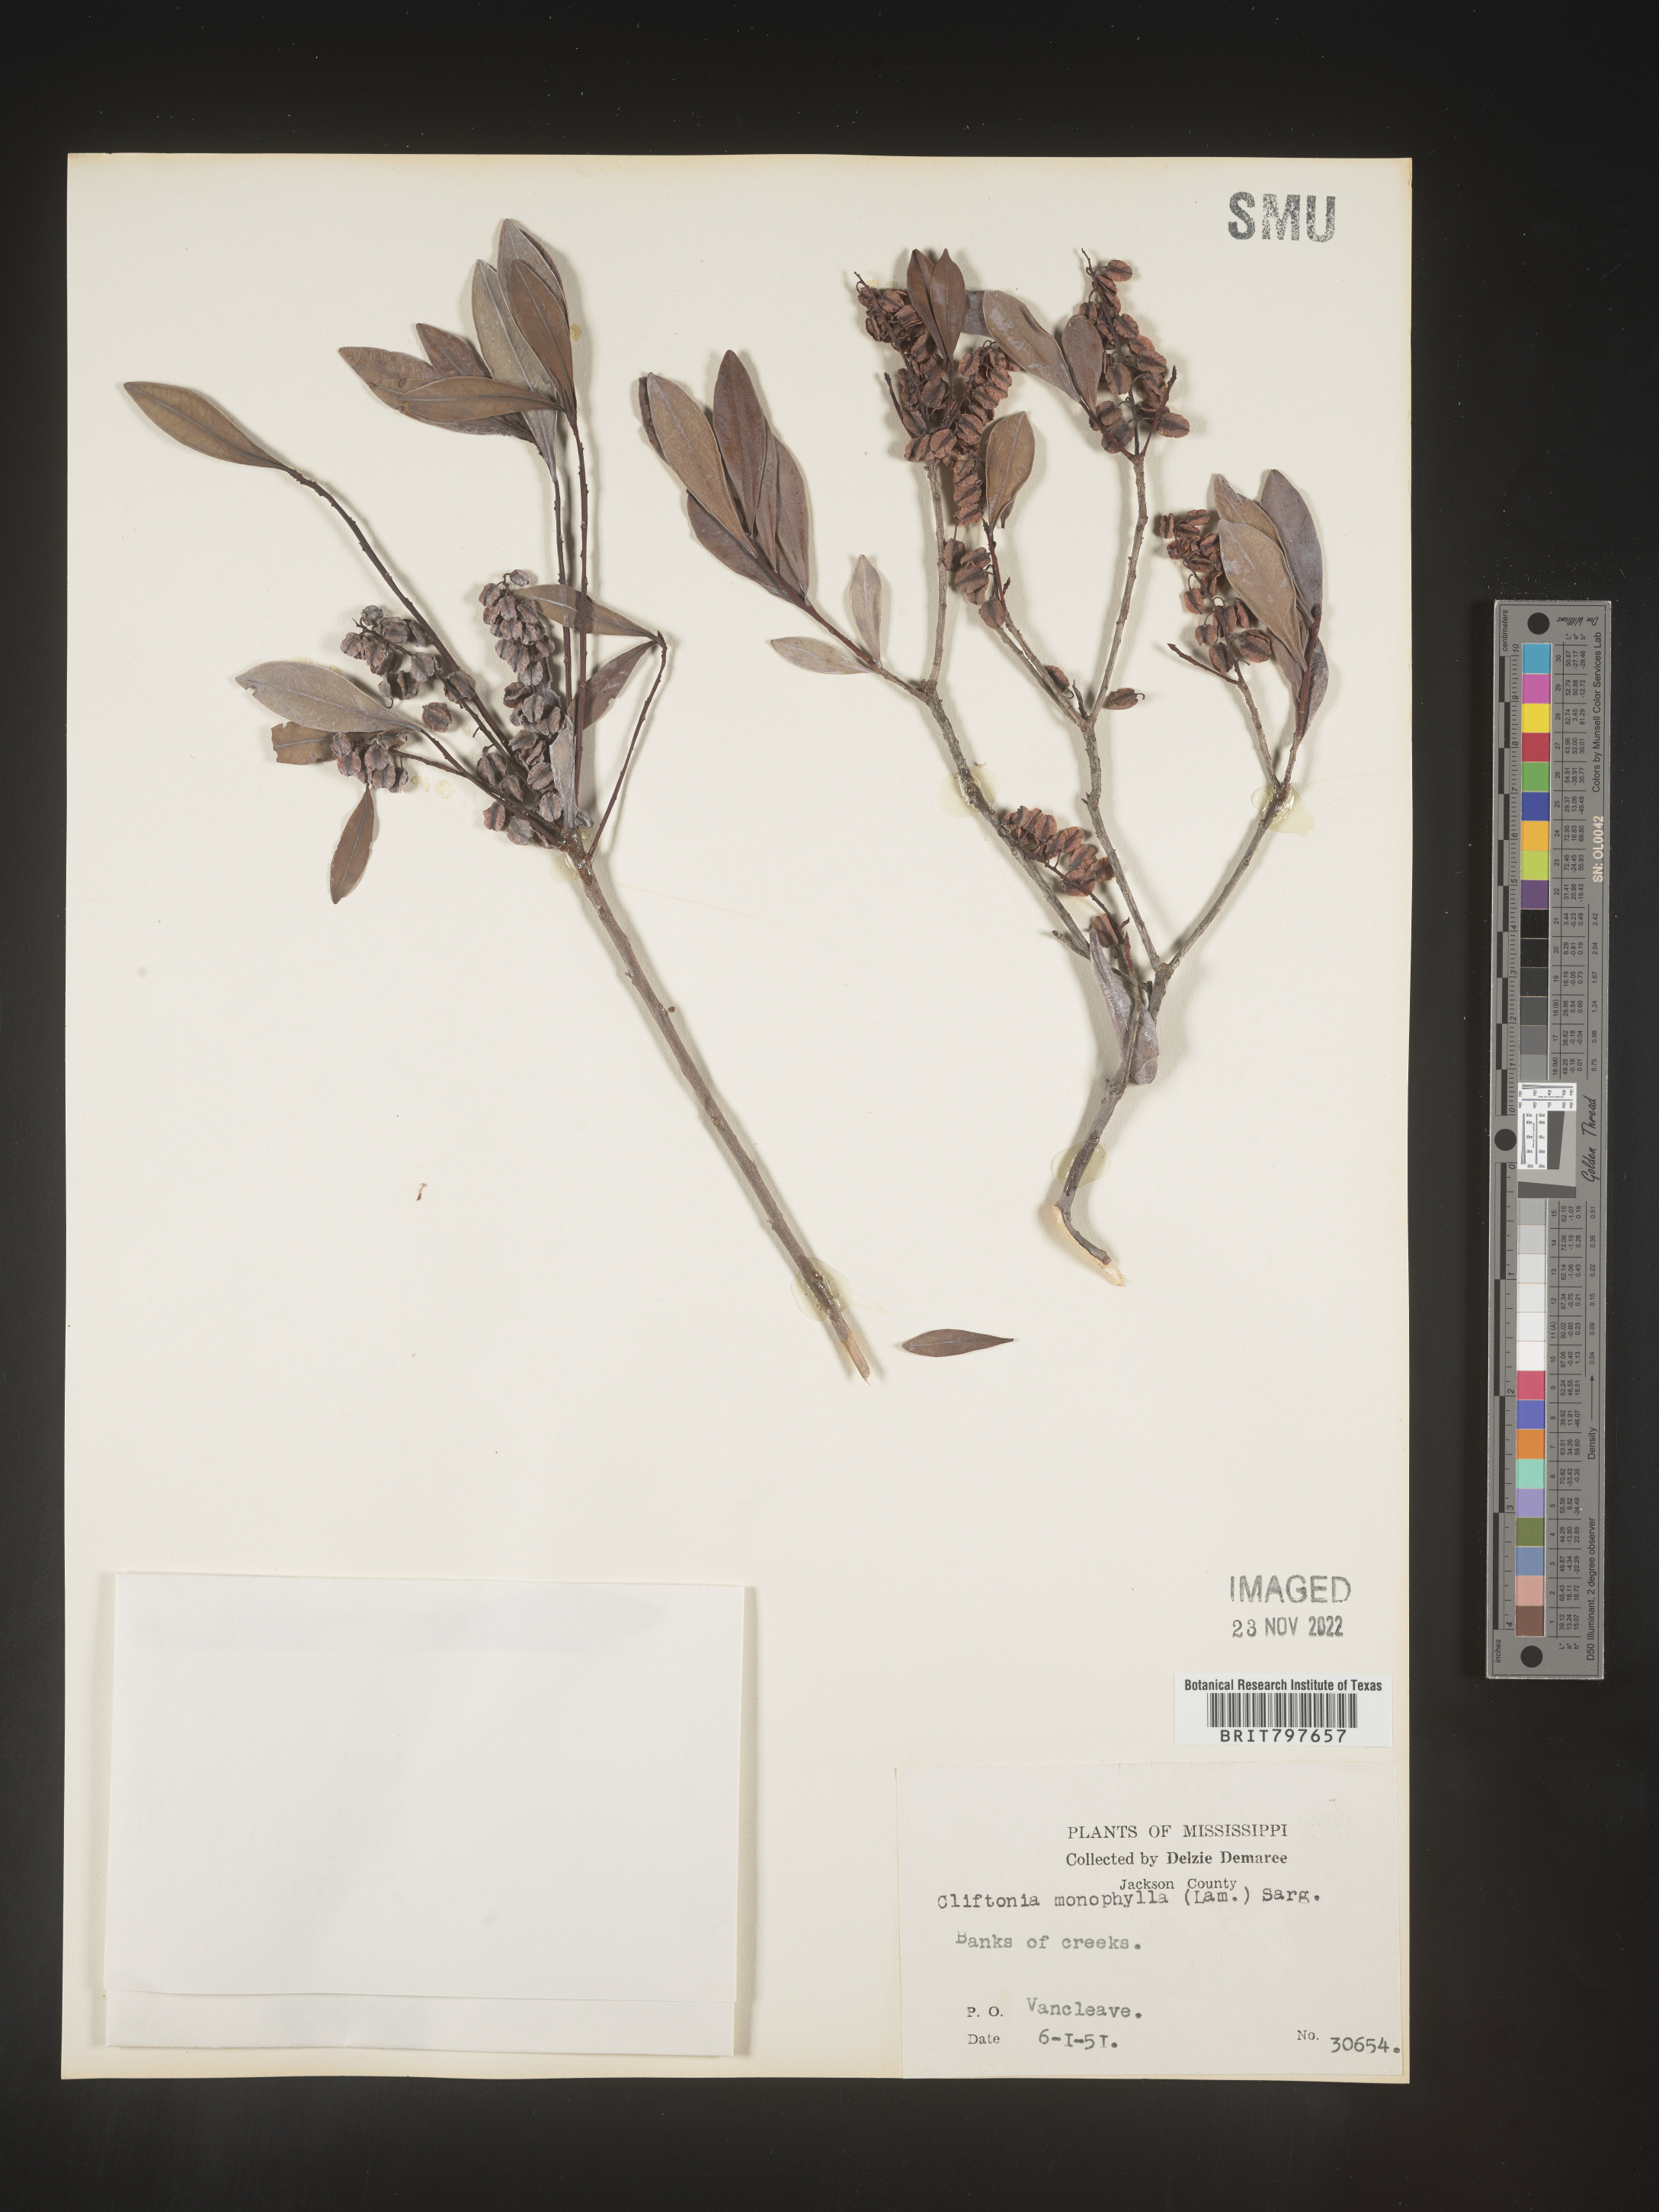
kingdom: Plantae
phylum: Tracheophyta
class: Magnoliopsida
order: Ericales
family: Cyrillaceae
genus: Cliftonia
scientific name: Cliftonia monophylla
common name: Titi
